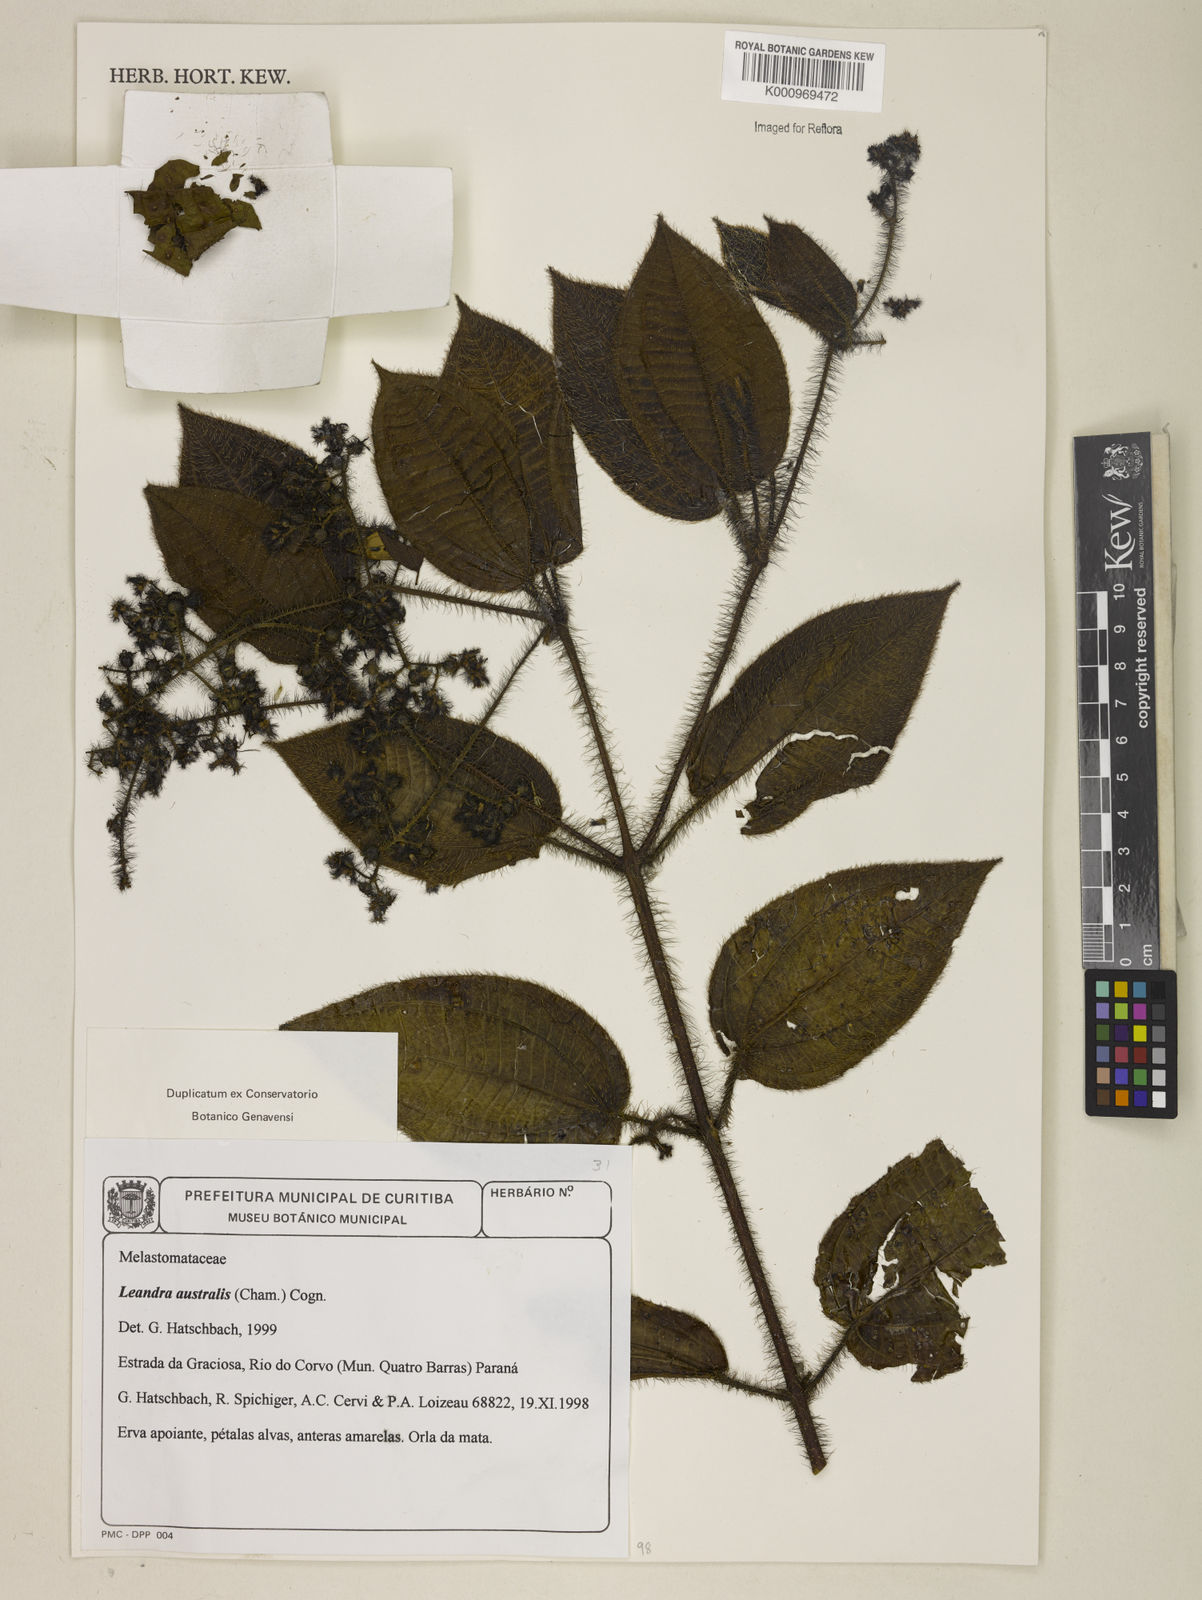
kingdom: Plantae
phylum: Tracheophyta
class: Magnoliopsida
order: Myrtales
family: Melastomataceae
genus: Miconia
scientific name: Miconia australis
